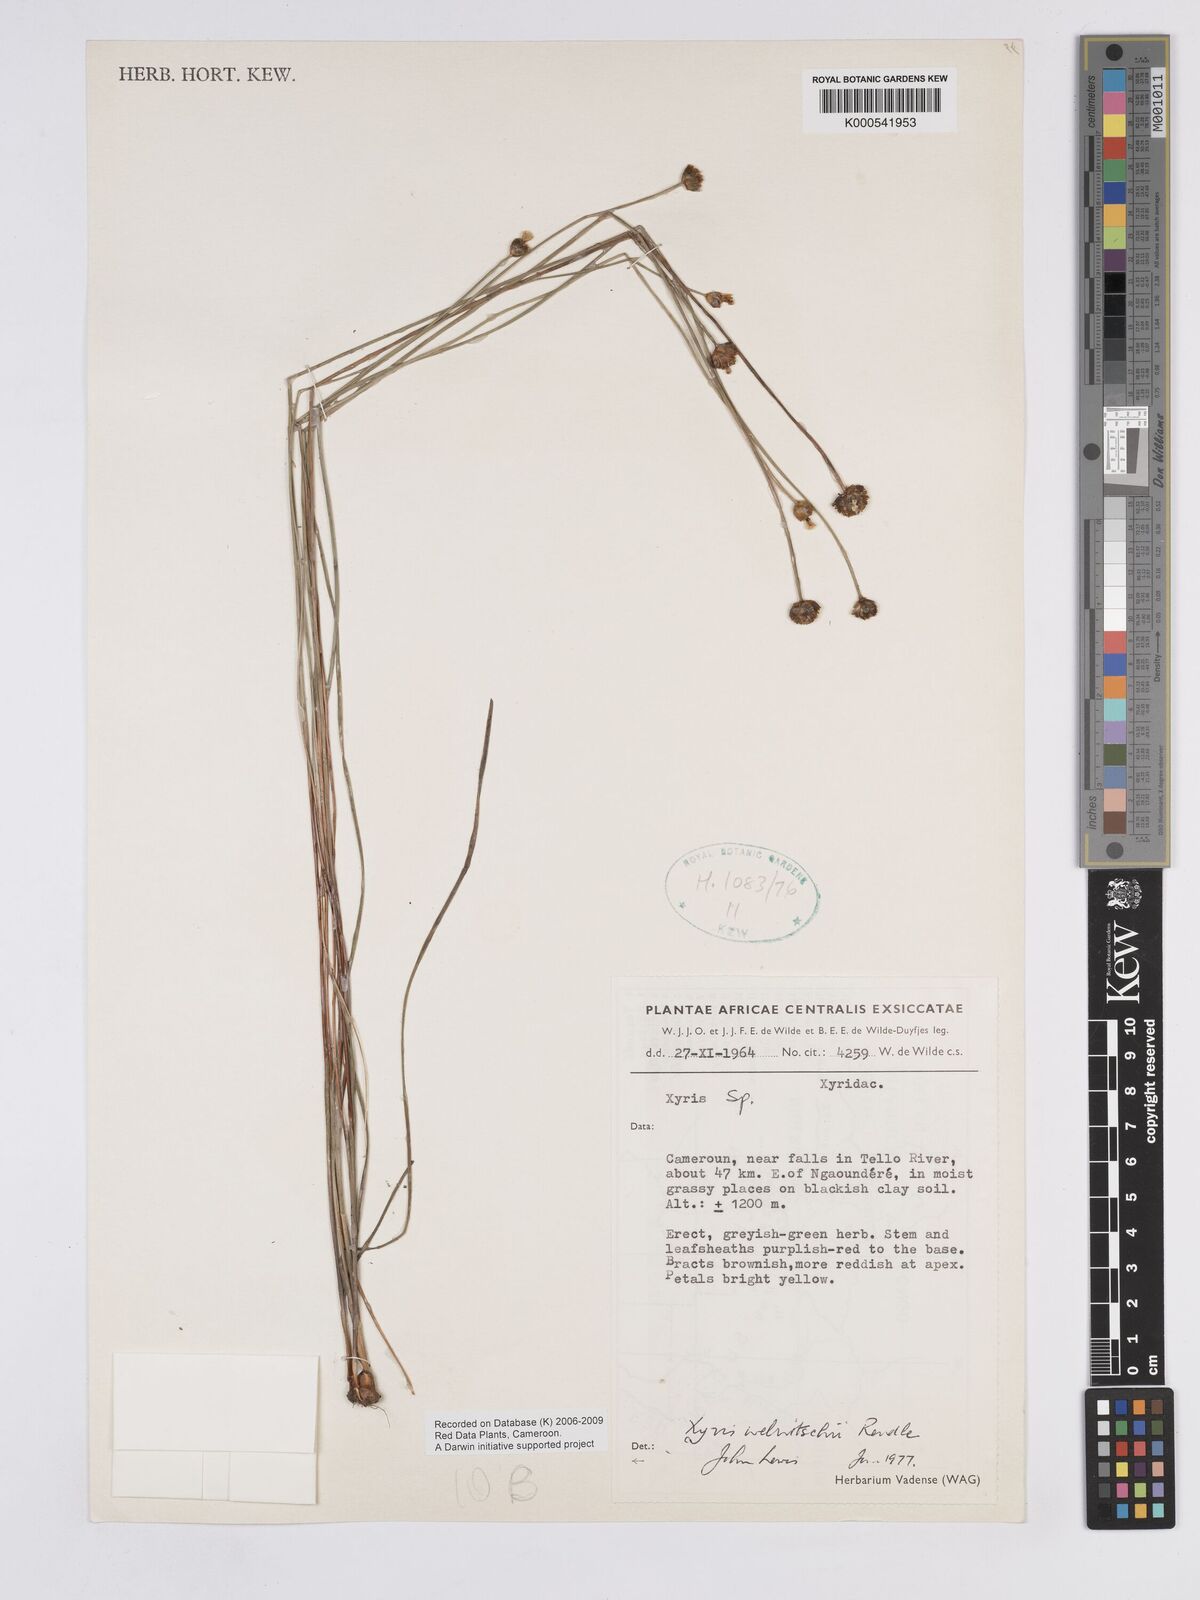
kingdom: Plantae
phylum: Tracheophyta
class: Liliopsida
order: Poales
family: Xyridaceae
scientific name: Xyridaceae
